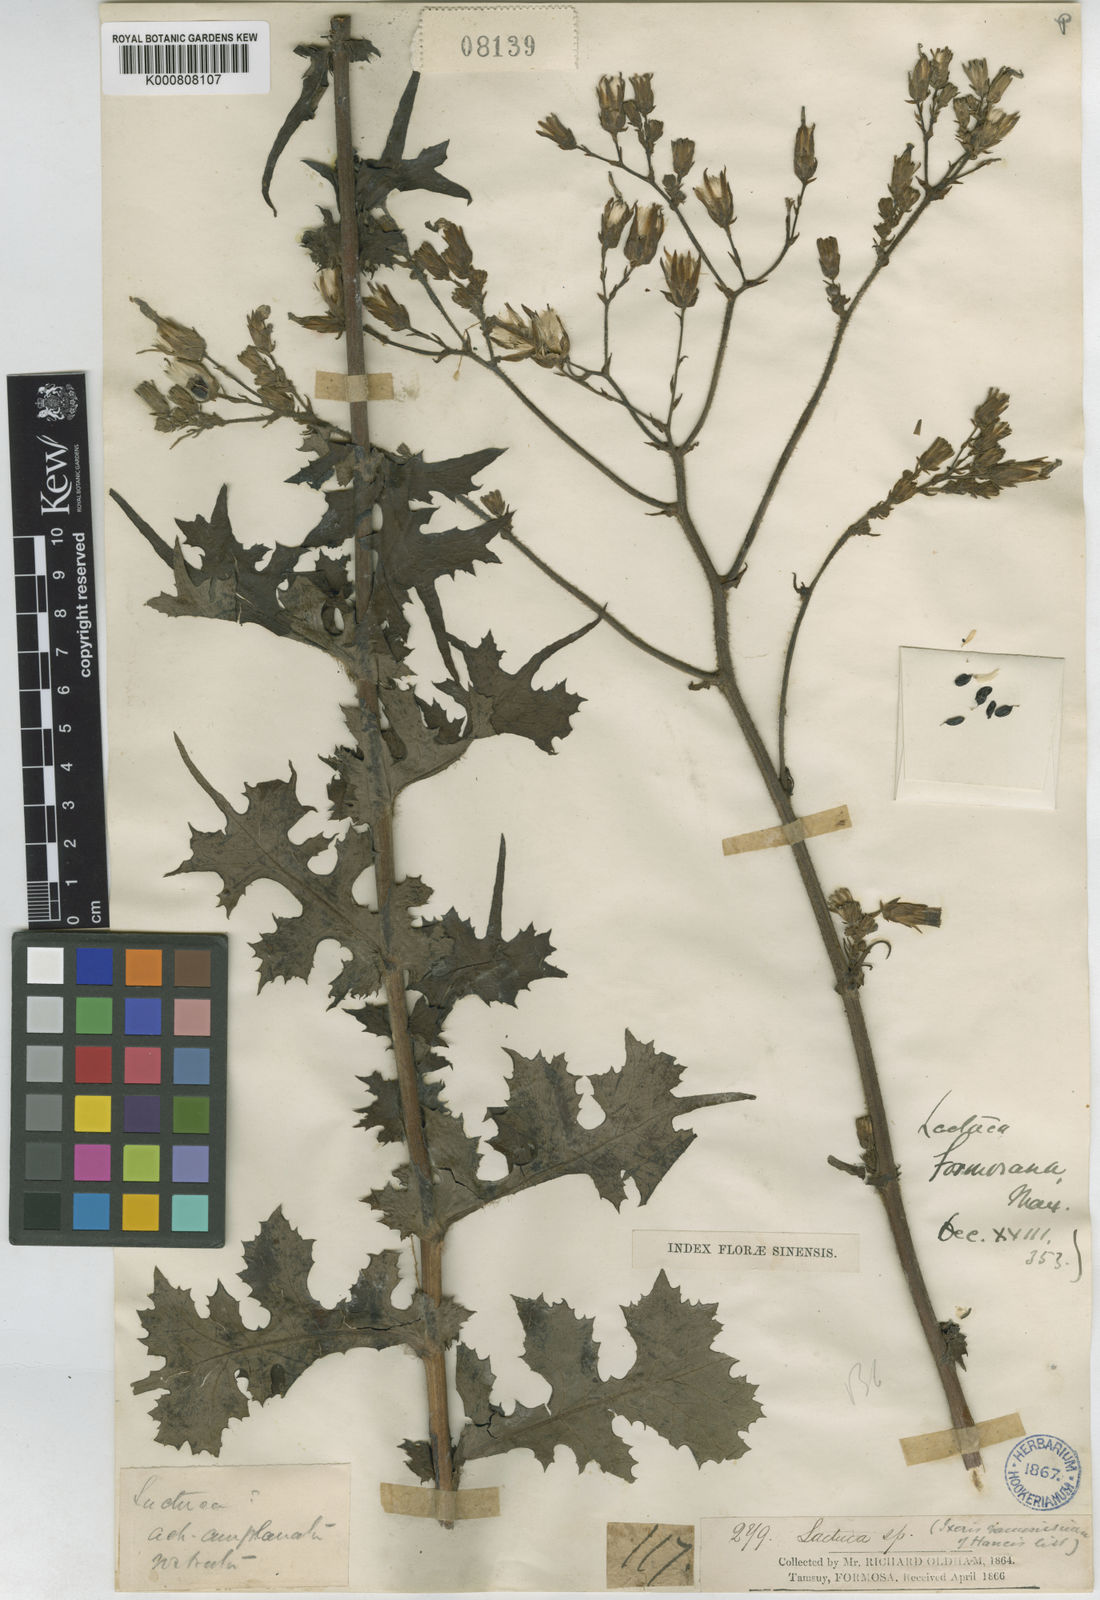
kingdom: Plantae
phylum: Tracheophyta
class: Magnoliopsida
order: Asterales
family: Asteraceae
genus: Lactuca
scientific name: Lactuca formosana
